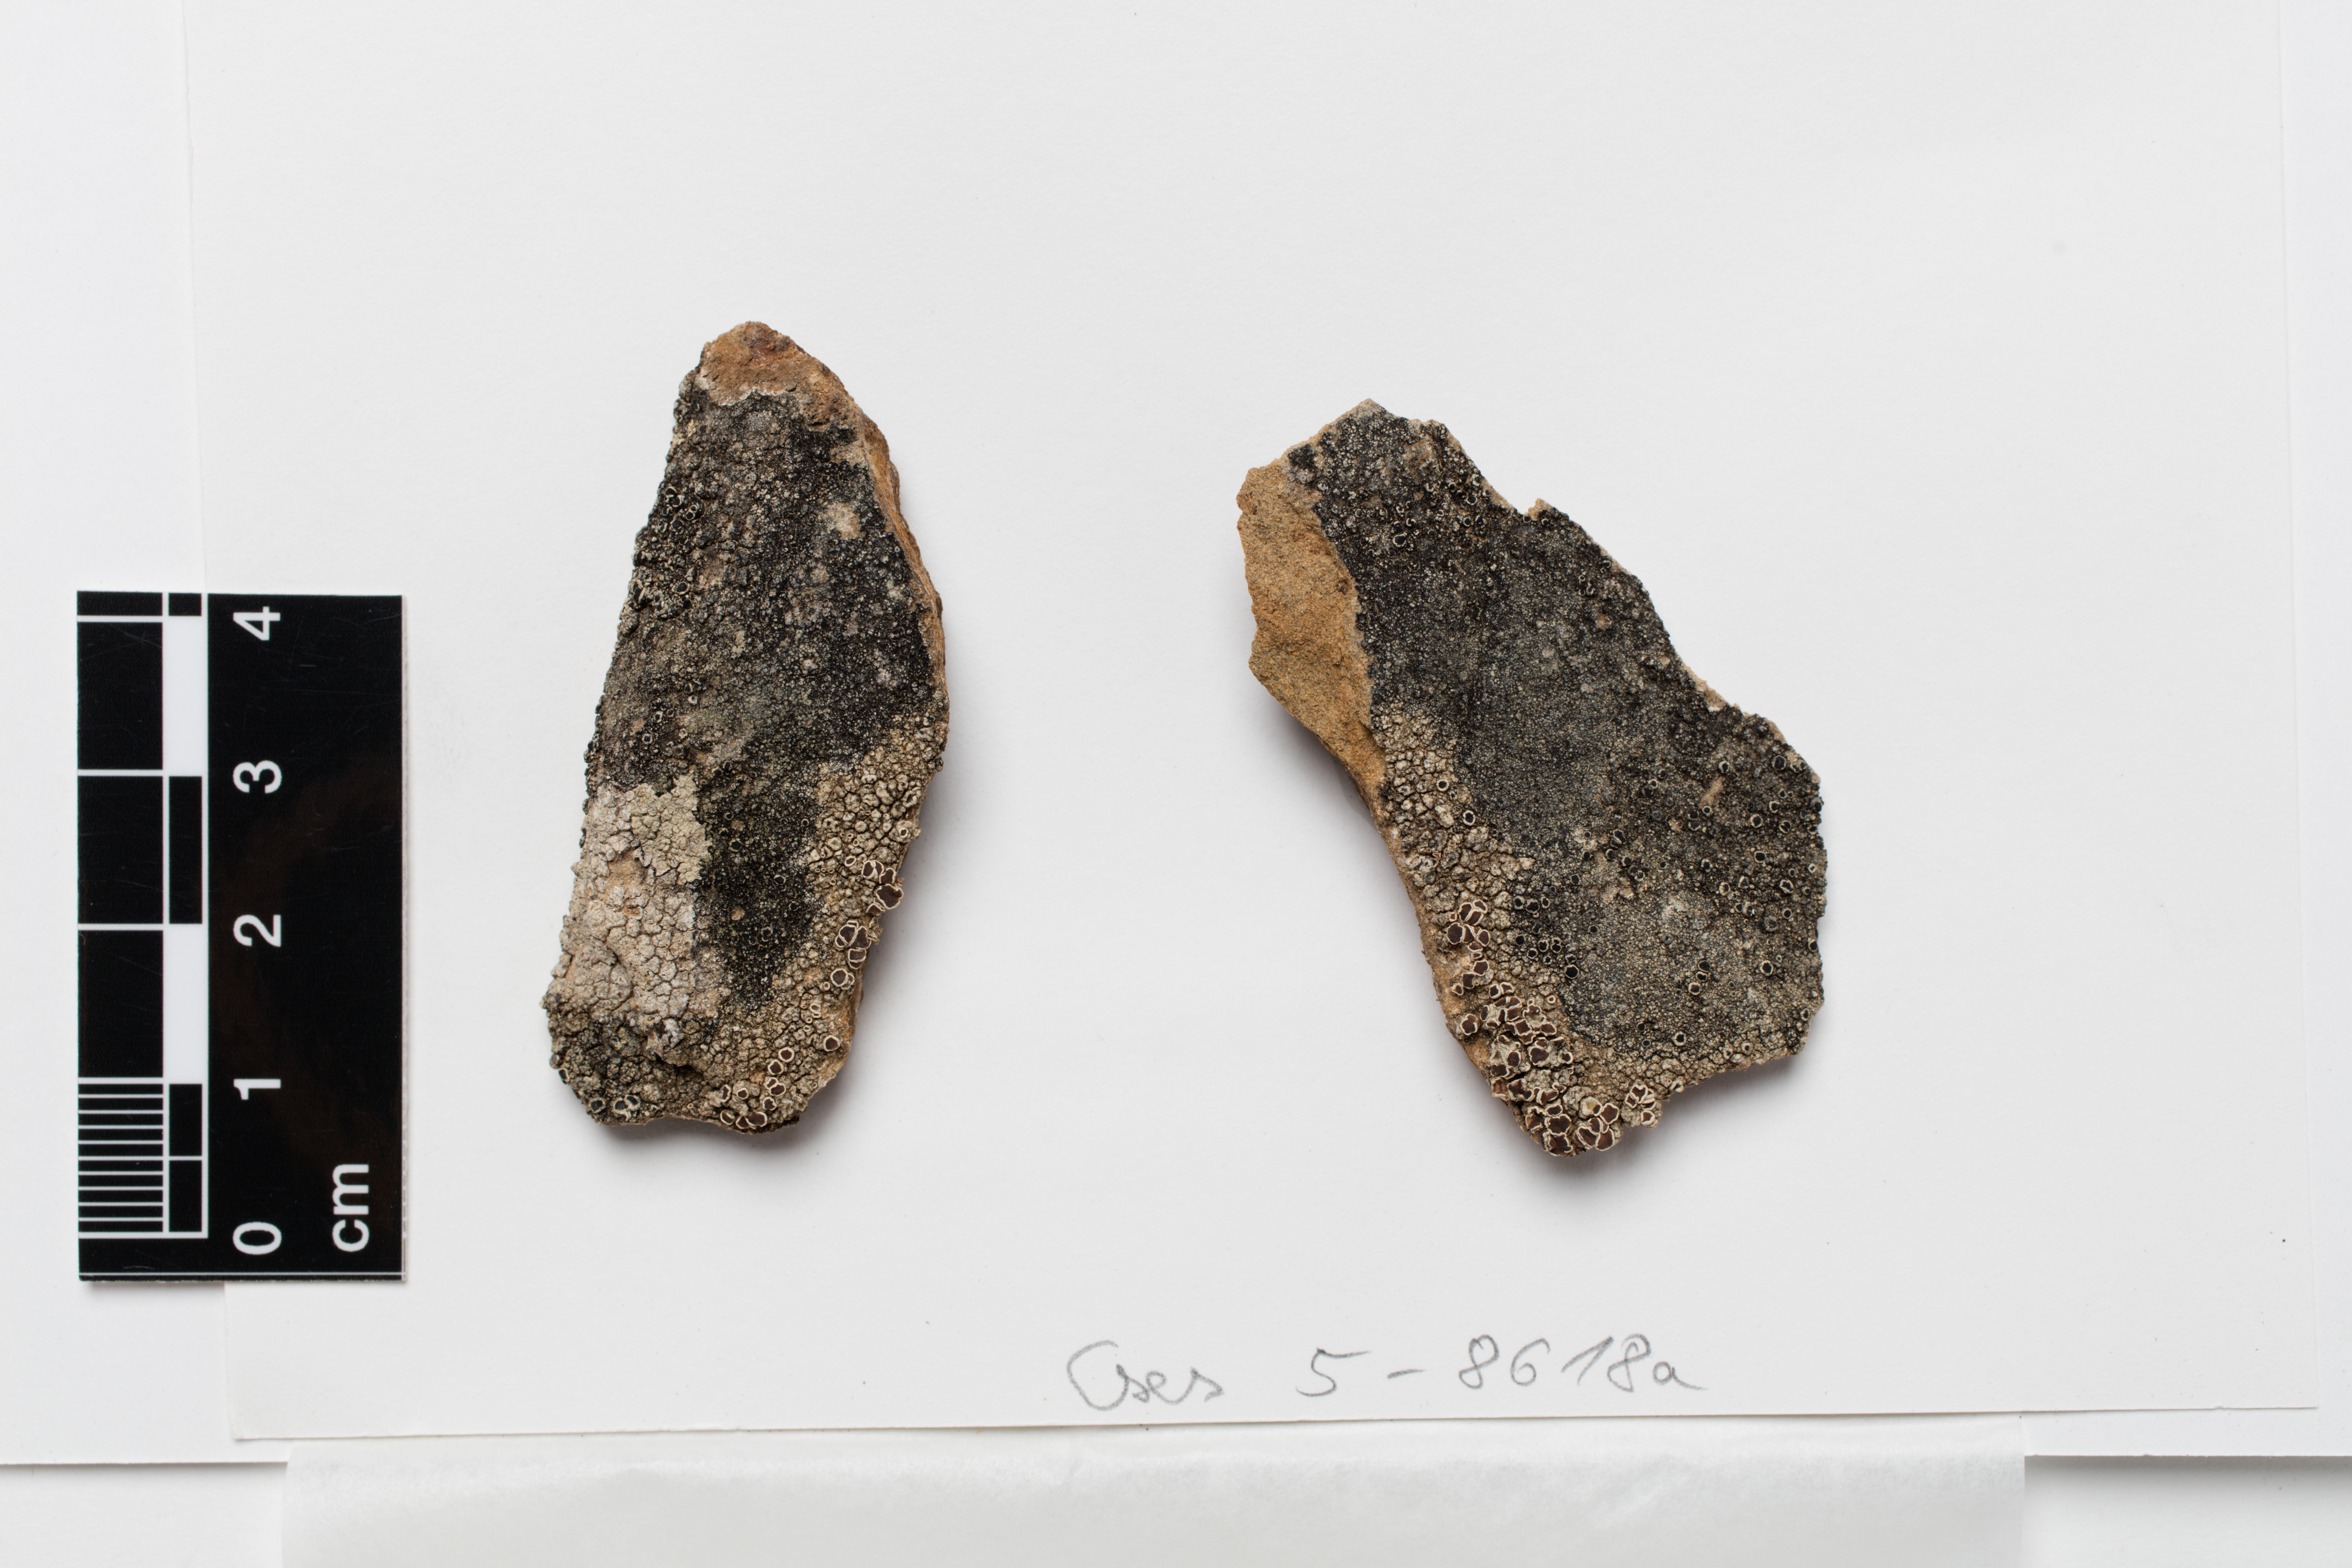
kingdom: Fungi
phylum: Ascomycota
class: Lecanoromycetes
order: Lecanorales
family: Lecanoraceae
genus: Lecanora
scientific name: Lecanora elixii
